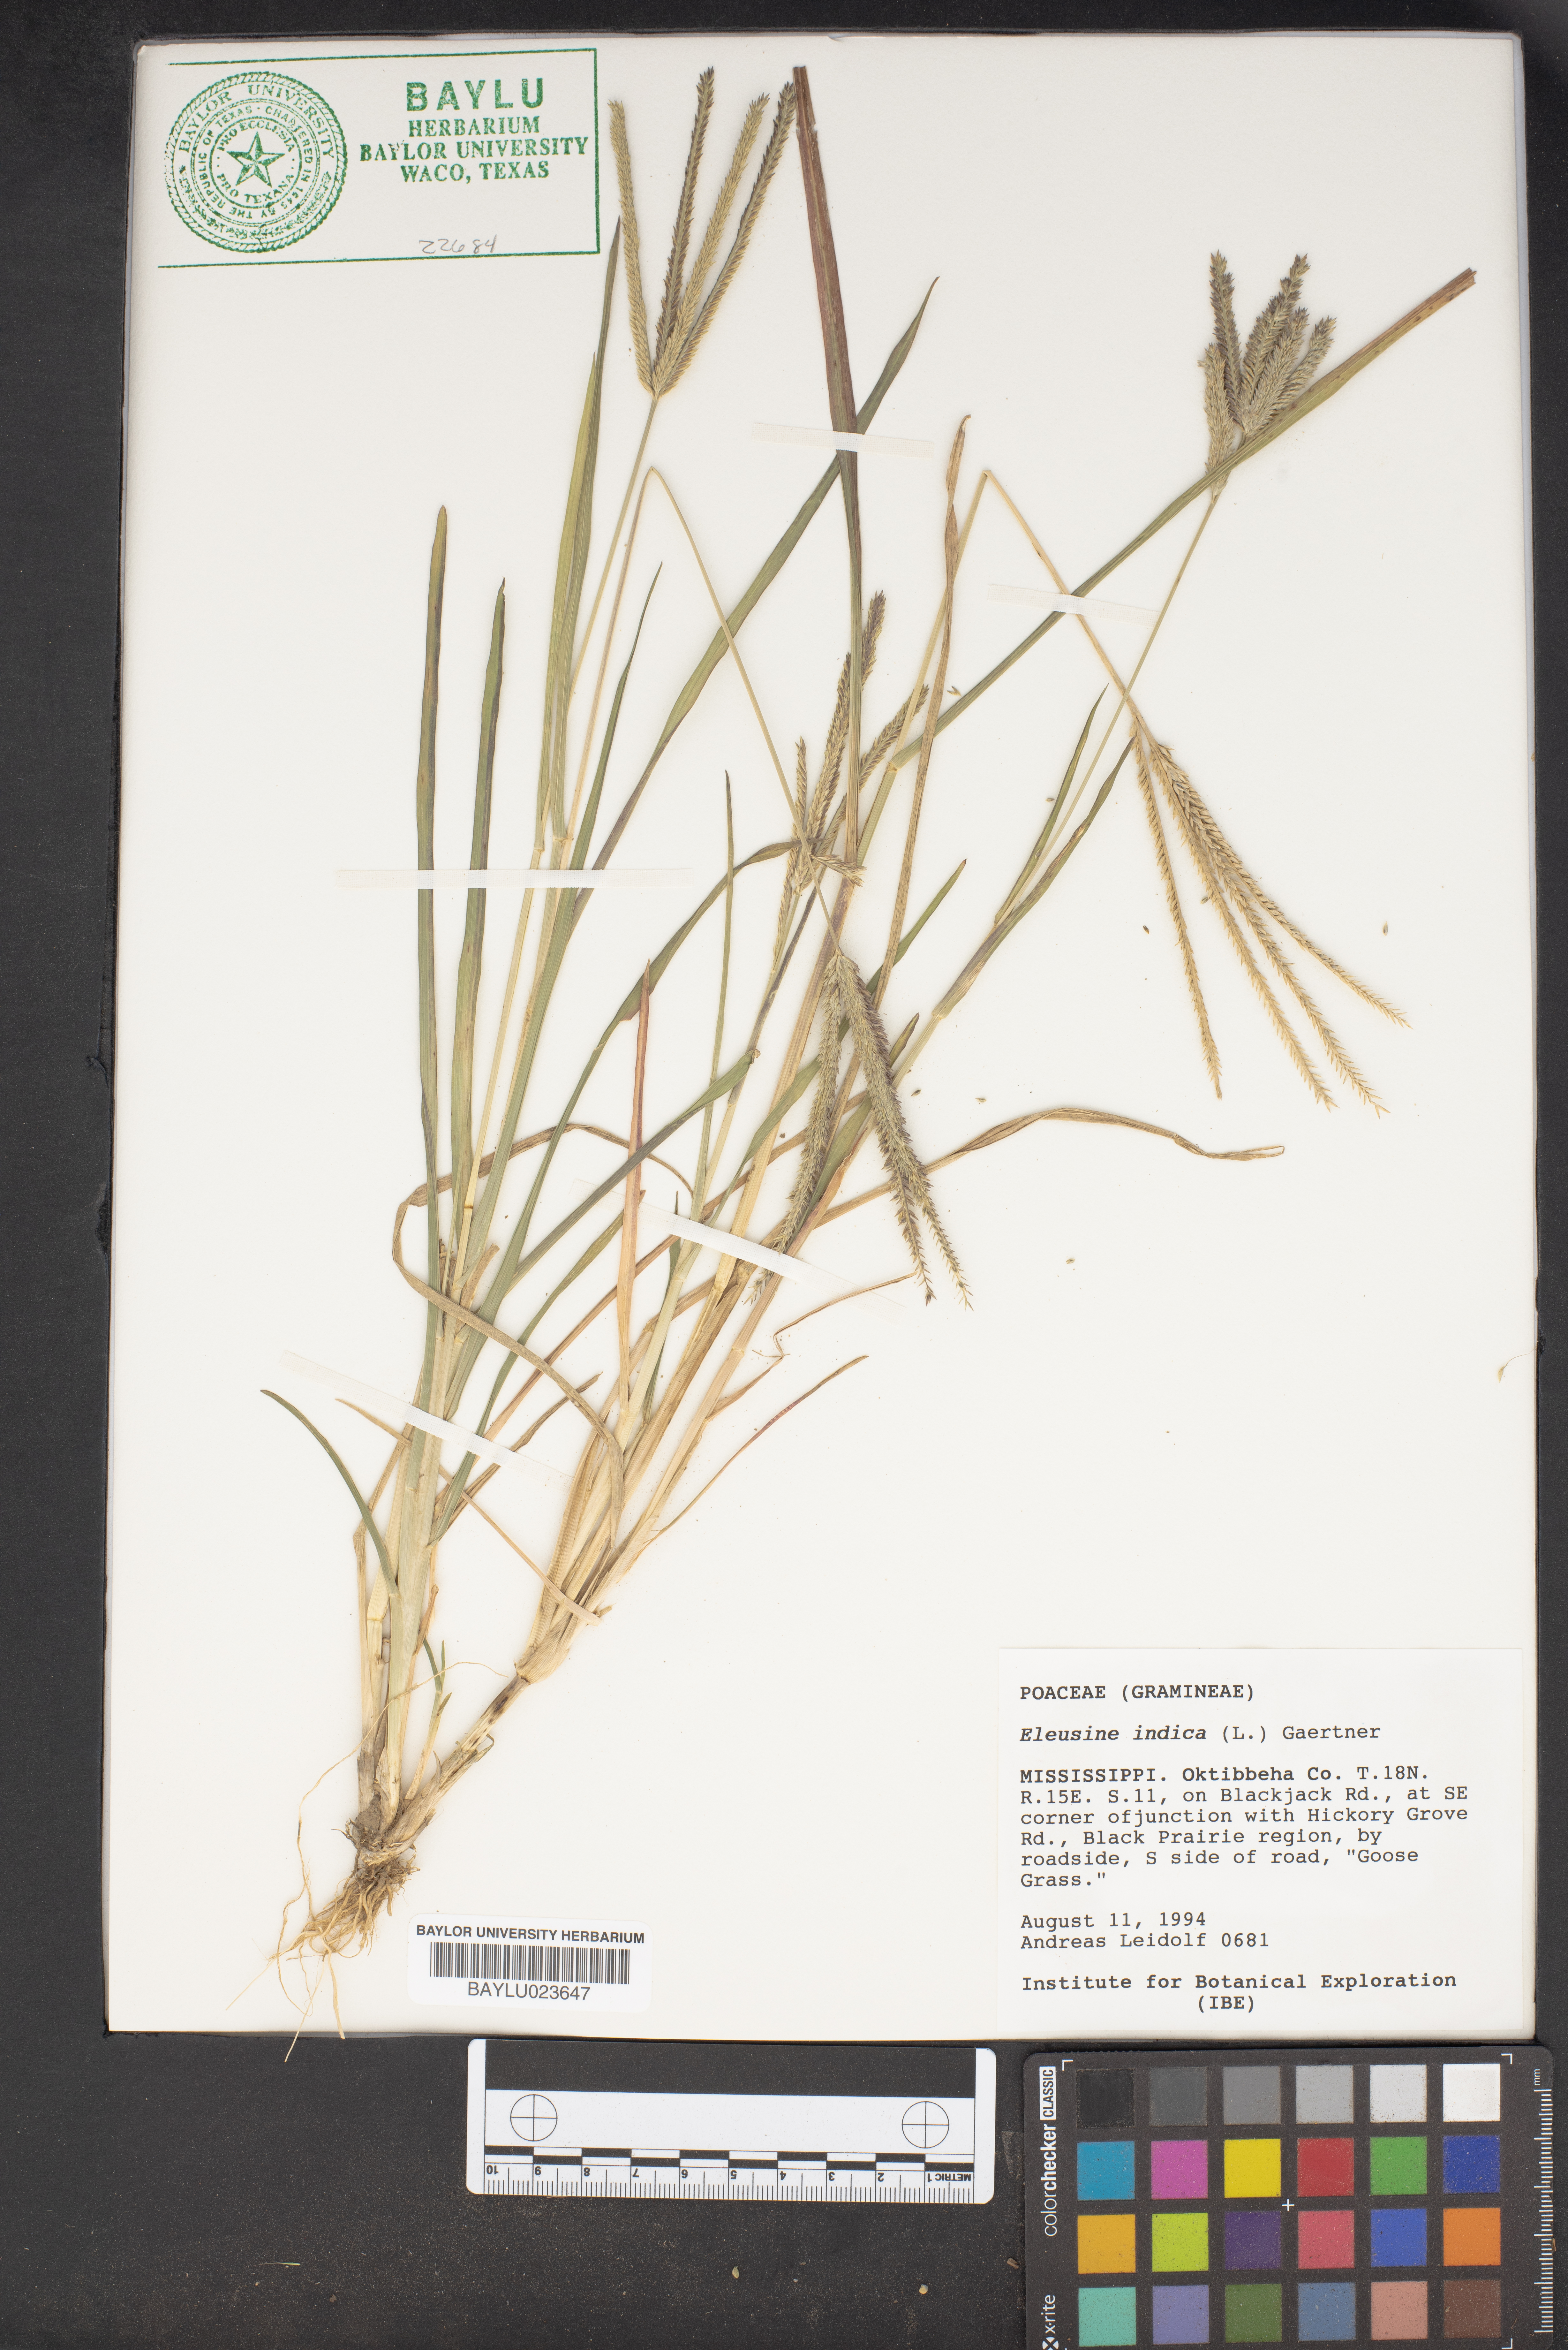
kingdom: Plantae
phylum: Tracheophyta
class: Liliopsida
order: Poales
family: Poaceae
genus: Eleusine
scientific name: Eleusine indica
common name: Yard-grass
